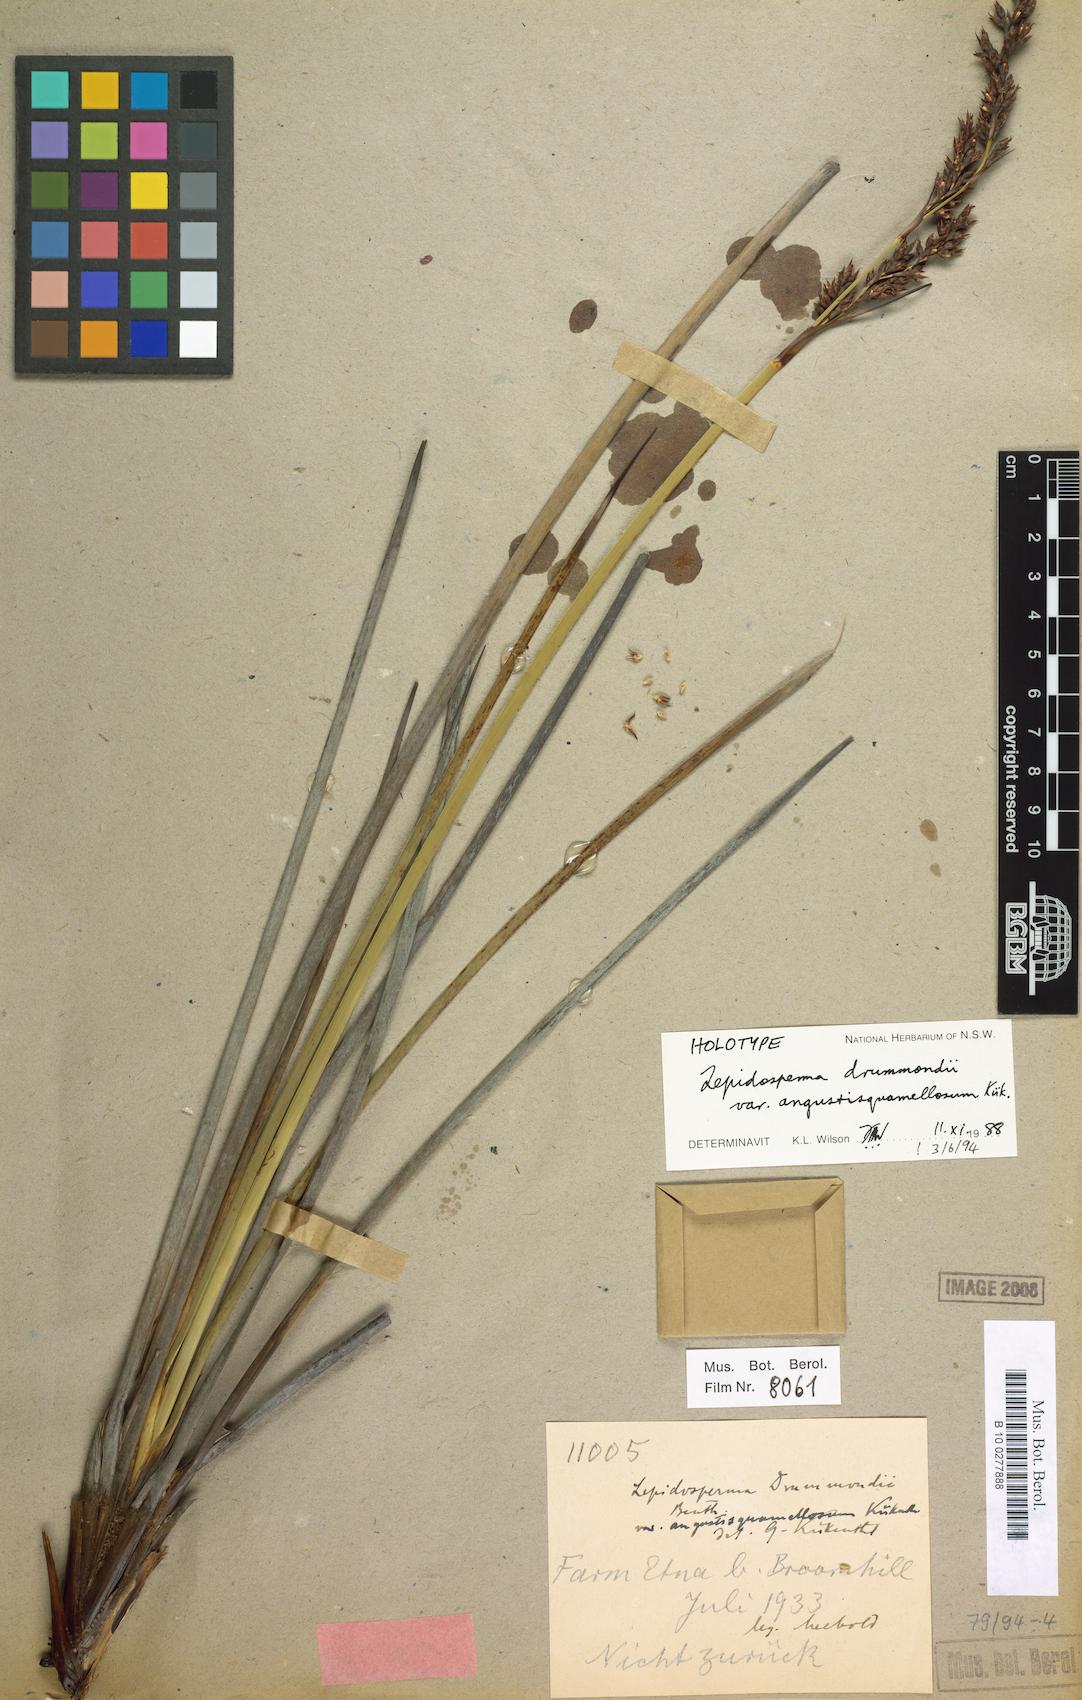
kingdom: Plantae
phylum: Tracheophyta
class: Liliopsida
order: Poales
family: Cyperaceae
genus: Lepidosperma
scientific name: Lepidosperma drummondii
